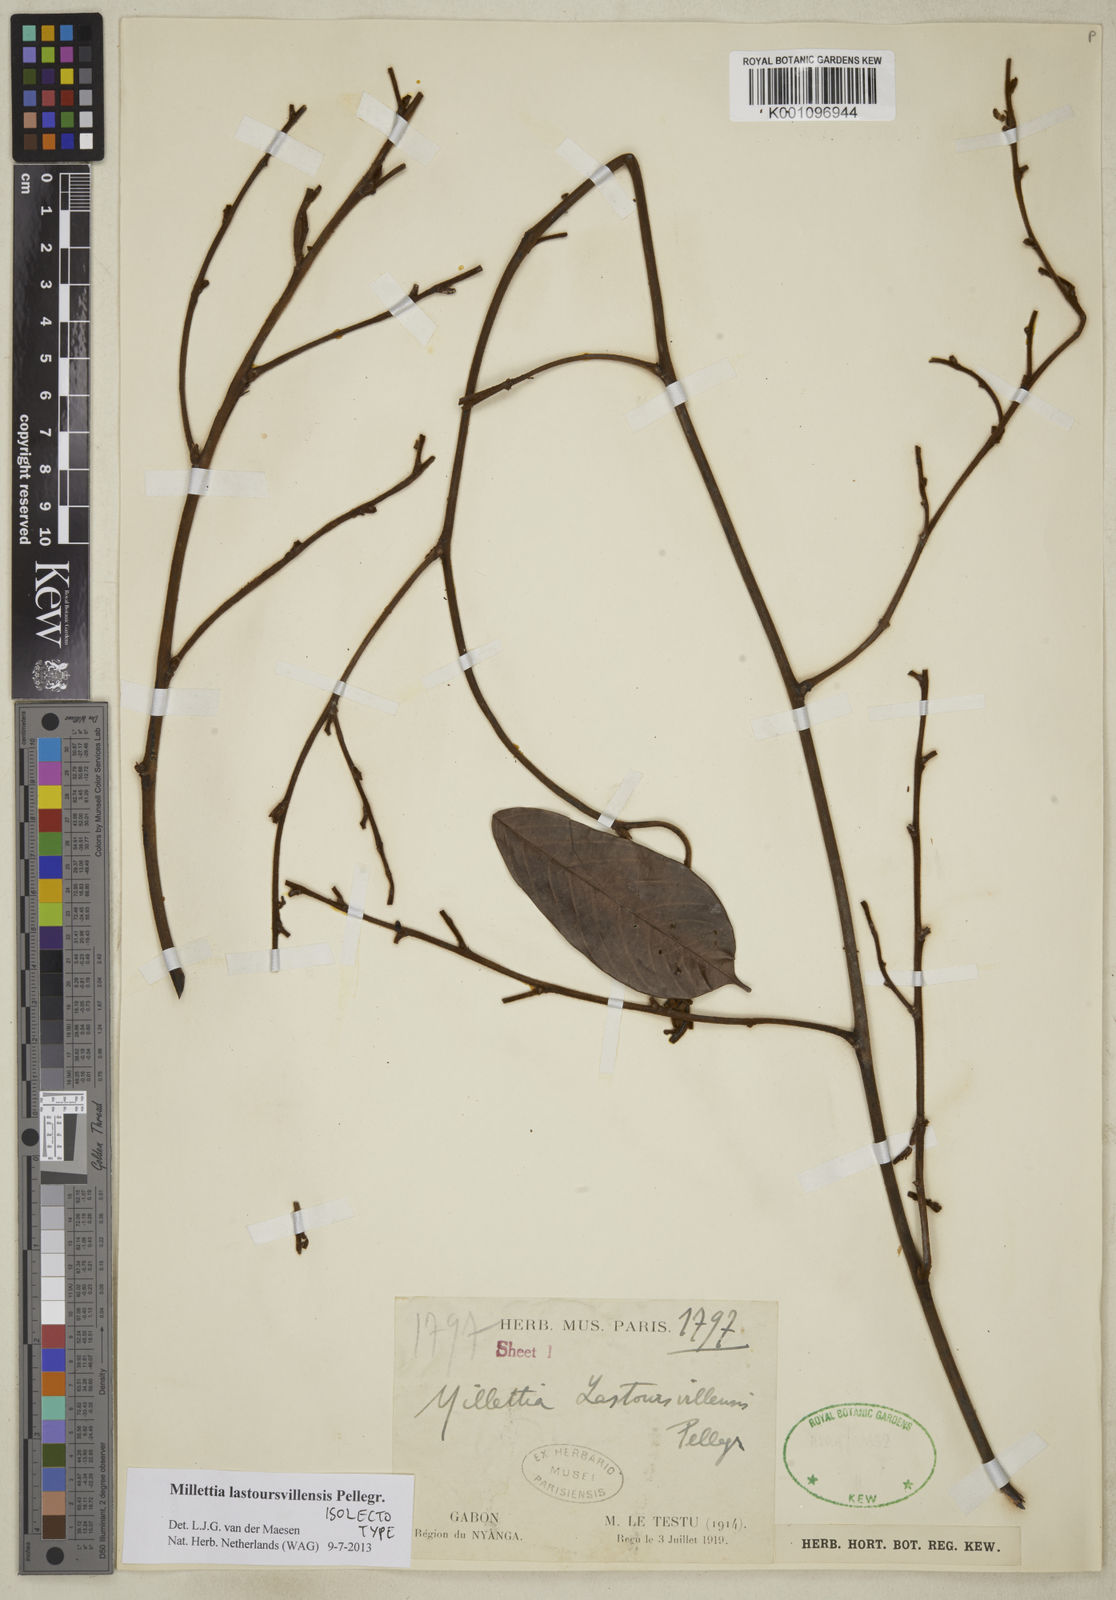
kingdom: Plantae
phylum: Tracheophyta
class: Magnoliopsida
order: Fabales
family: Fabaceae
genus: Millettia
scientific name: Millettia lastoursvillensis
